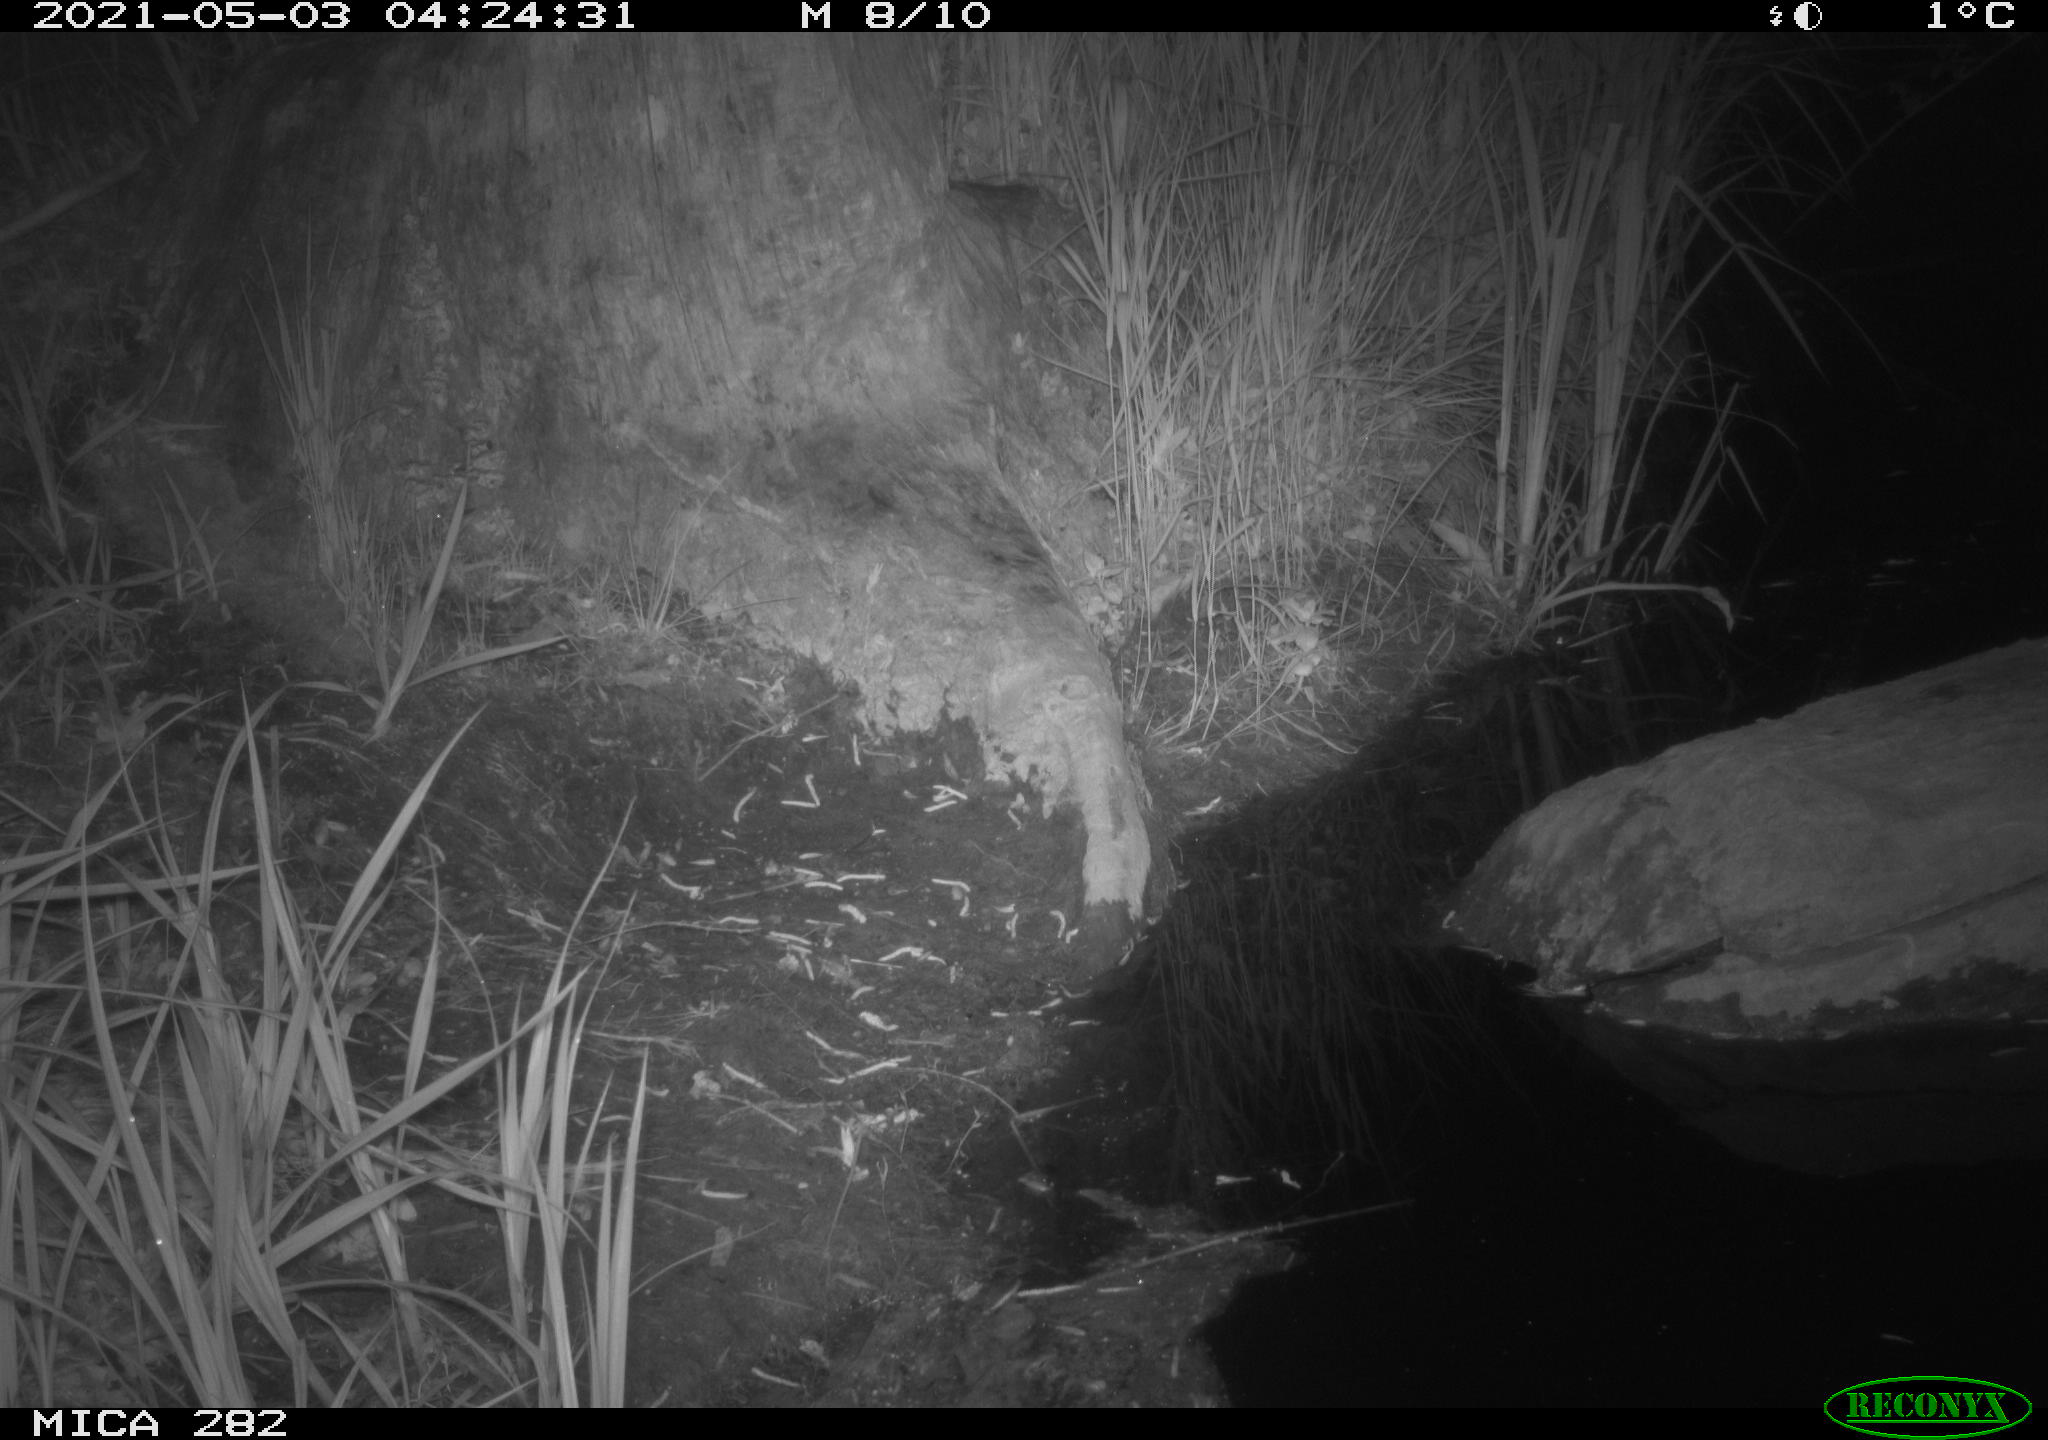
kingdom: Animalia
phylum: Chordata
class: Mammalia
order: Carnivora
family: Canidae
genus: Vulpes
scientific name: Vulpes vulpes
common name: Red fox
